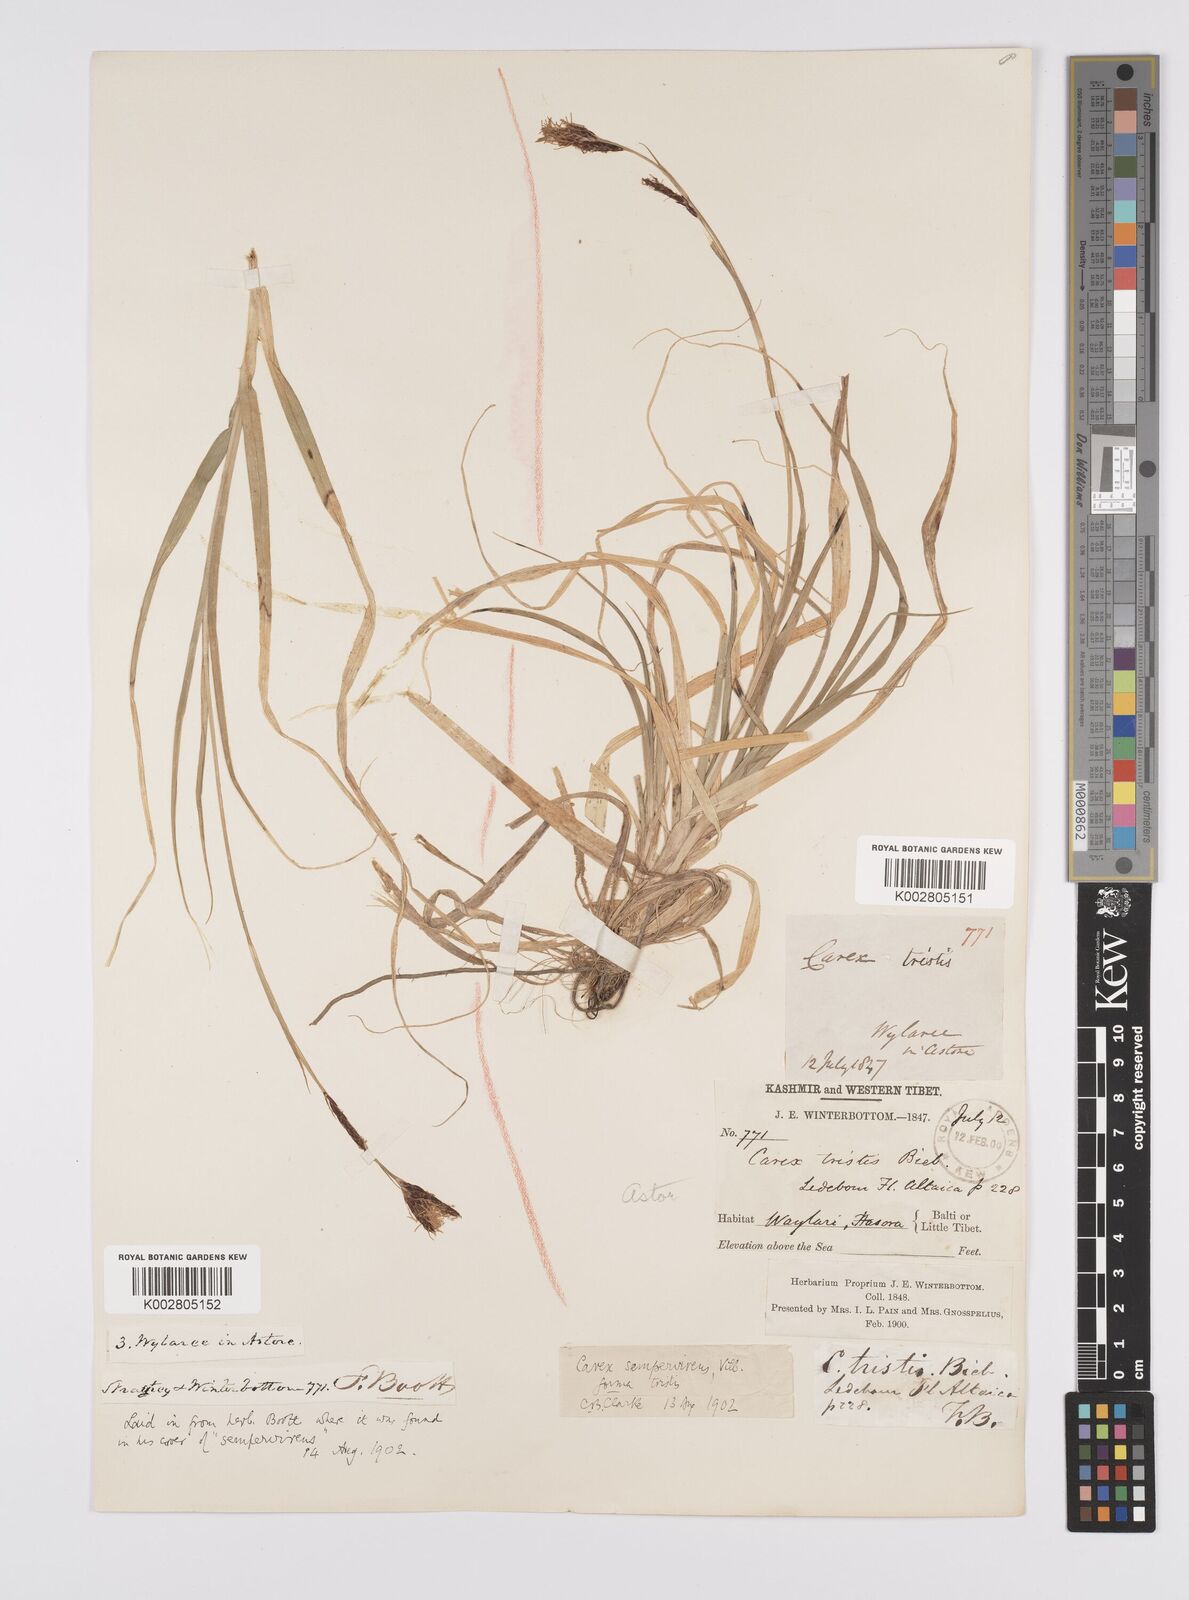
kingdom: Plantae
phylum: Tracheophyta
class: Liliopsida
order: Poales
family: Cyperaceae
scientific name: Cyperaceae
